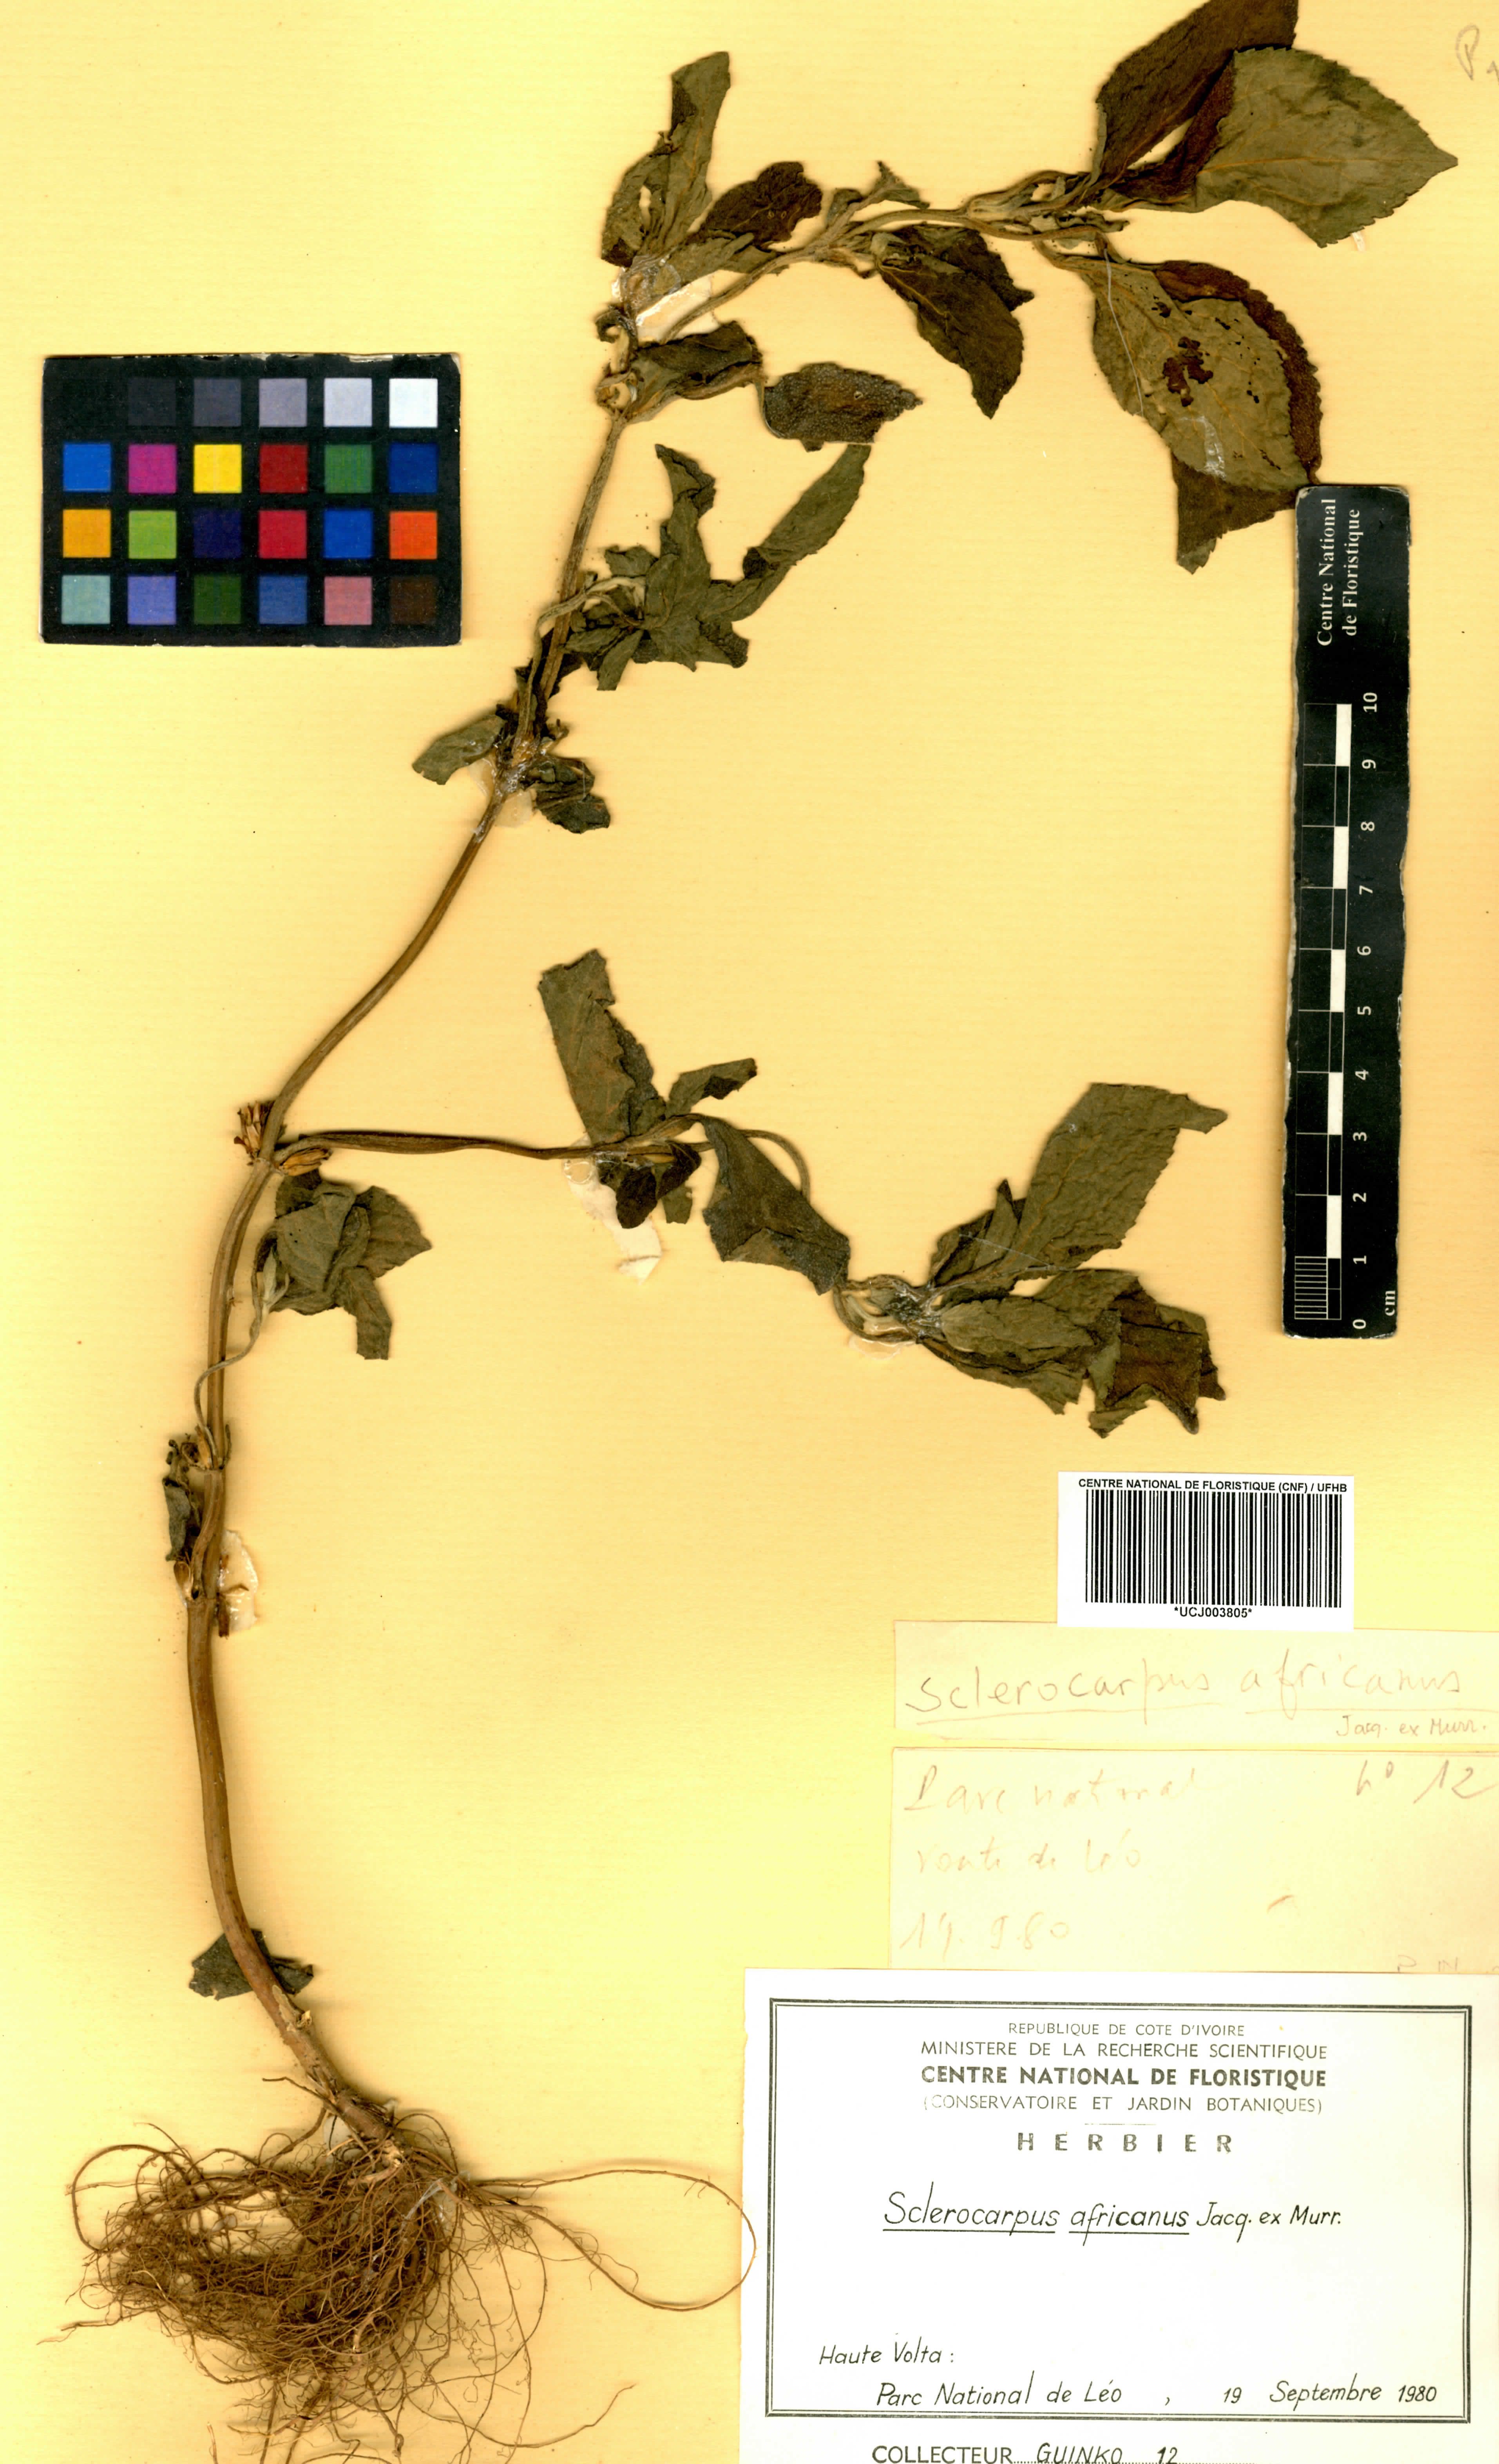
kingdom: Plantae
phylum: Tracheophyta
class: Magnoliopsida
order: Asterales
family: Asteraceae
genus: Sclerocarpus
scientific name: Sclerocarpus africanus
